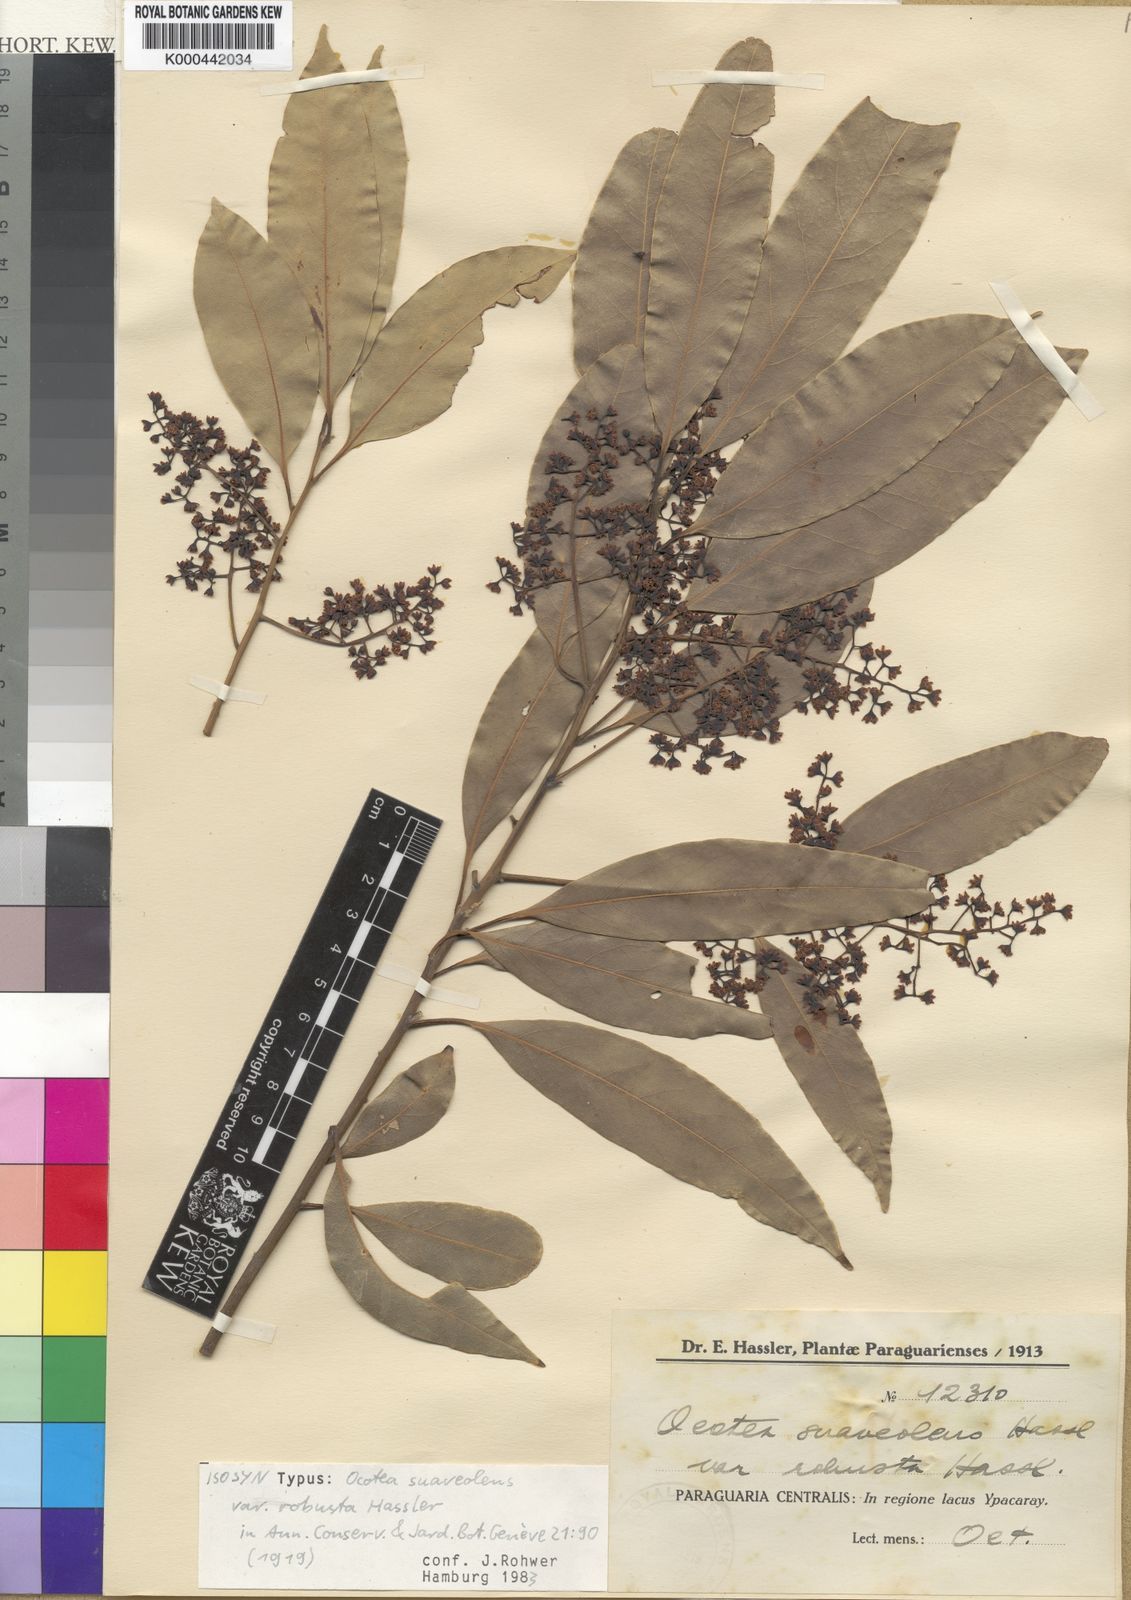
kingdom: Plantae
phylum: Tracheophyta
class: Magnoliopsida
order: Laurales
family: Lauraceae
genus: Ocotea
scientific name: Ocotea diospyrifolia
